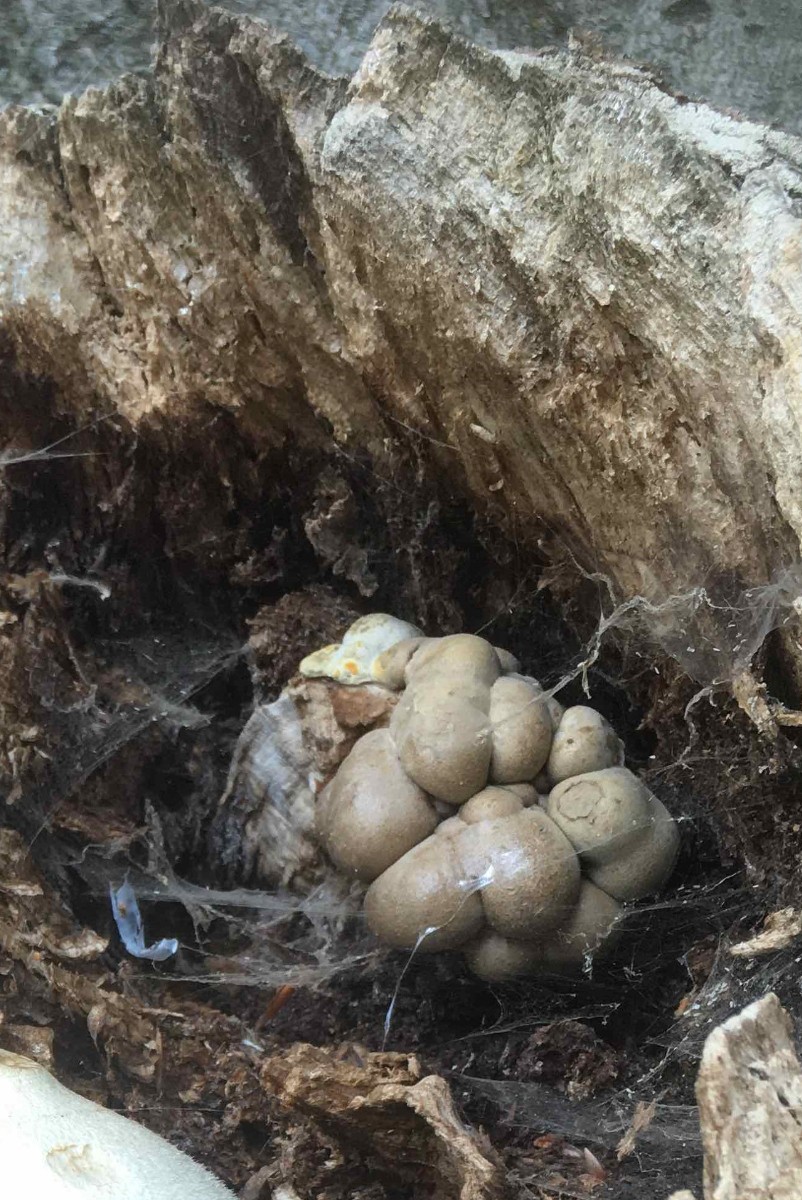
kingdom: Protozoa
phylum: Mycetozoa
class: Myxomycetes
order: Cribrariales
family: Tubiferaceae
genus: Lycogala
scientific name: Lycogala flavofuscum
